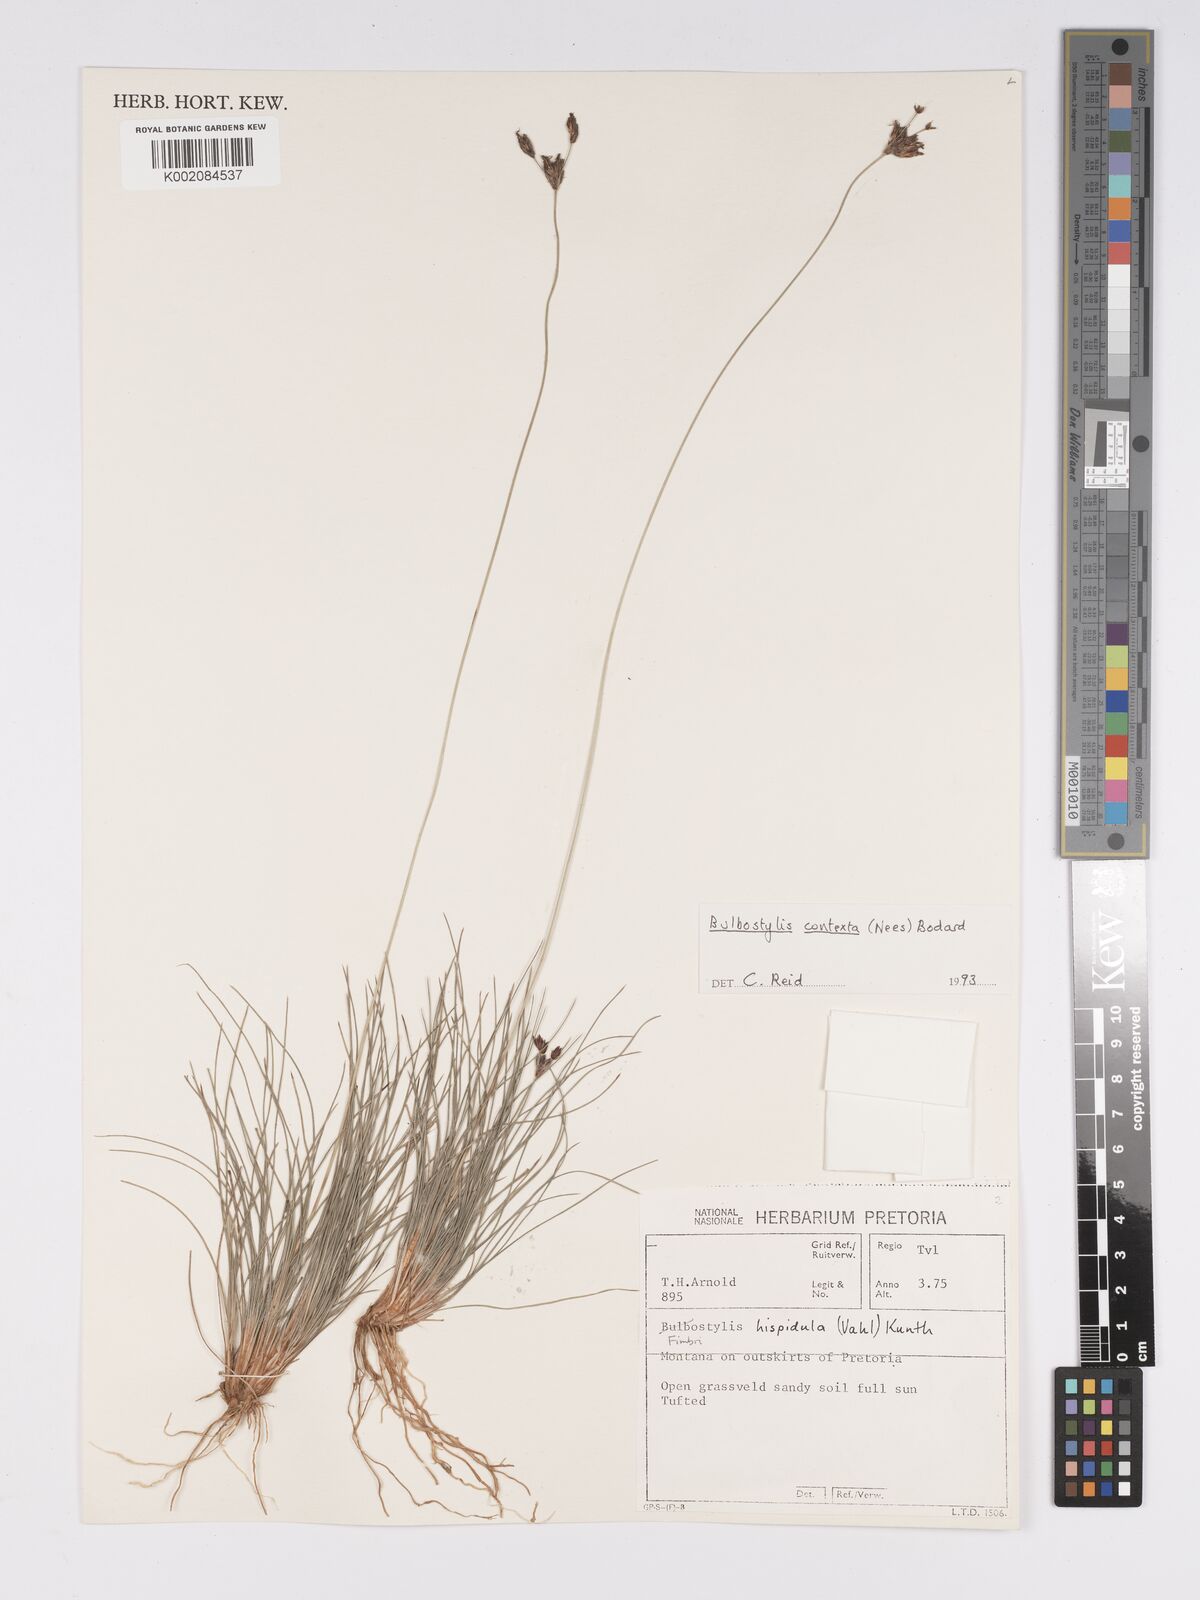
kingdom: Plantae
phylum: Tracheophyta
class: Liliopsida
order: Poales
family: Cyperaceae
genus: Bulbostylis
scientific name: Bulbostylis contexta
